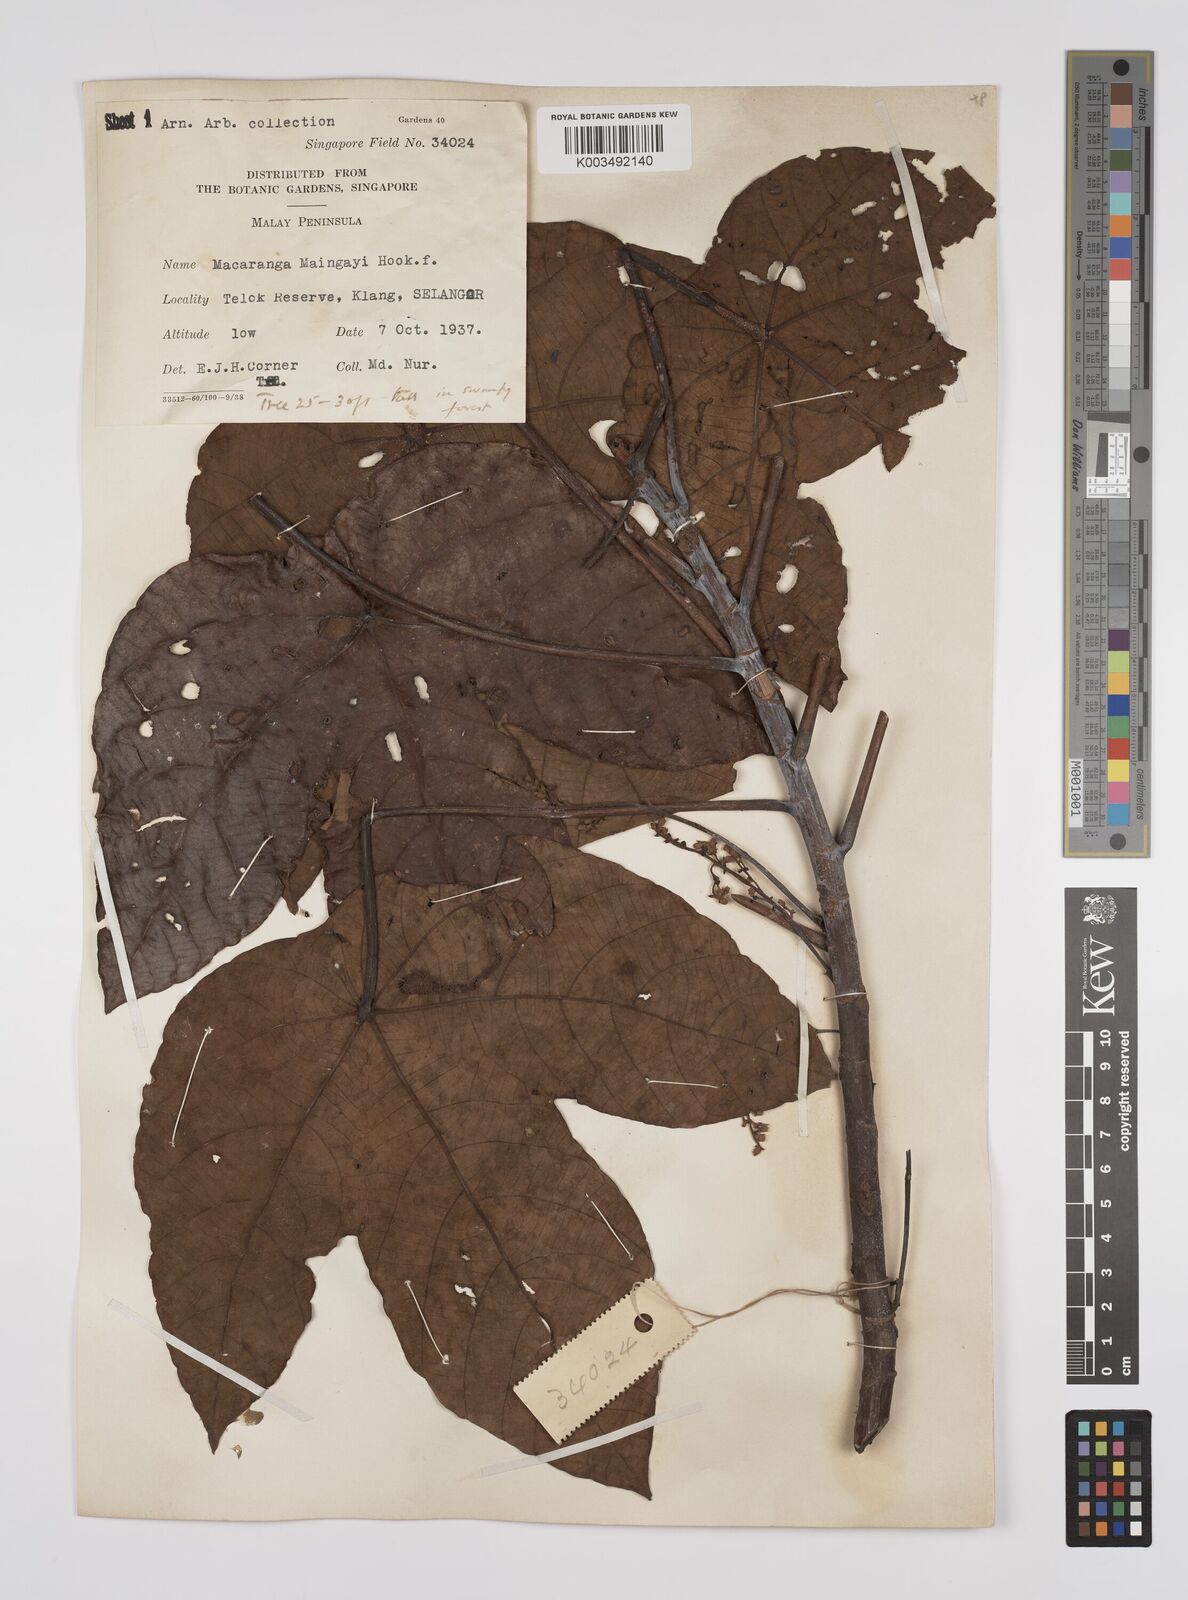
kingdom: Plantae
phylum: Tracheophyta
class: Magnoliopsida
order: Malpighiales
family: Euphorbiaceae
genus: Macaranga
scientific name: Macaranga pruinosa
